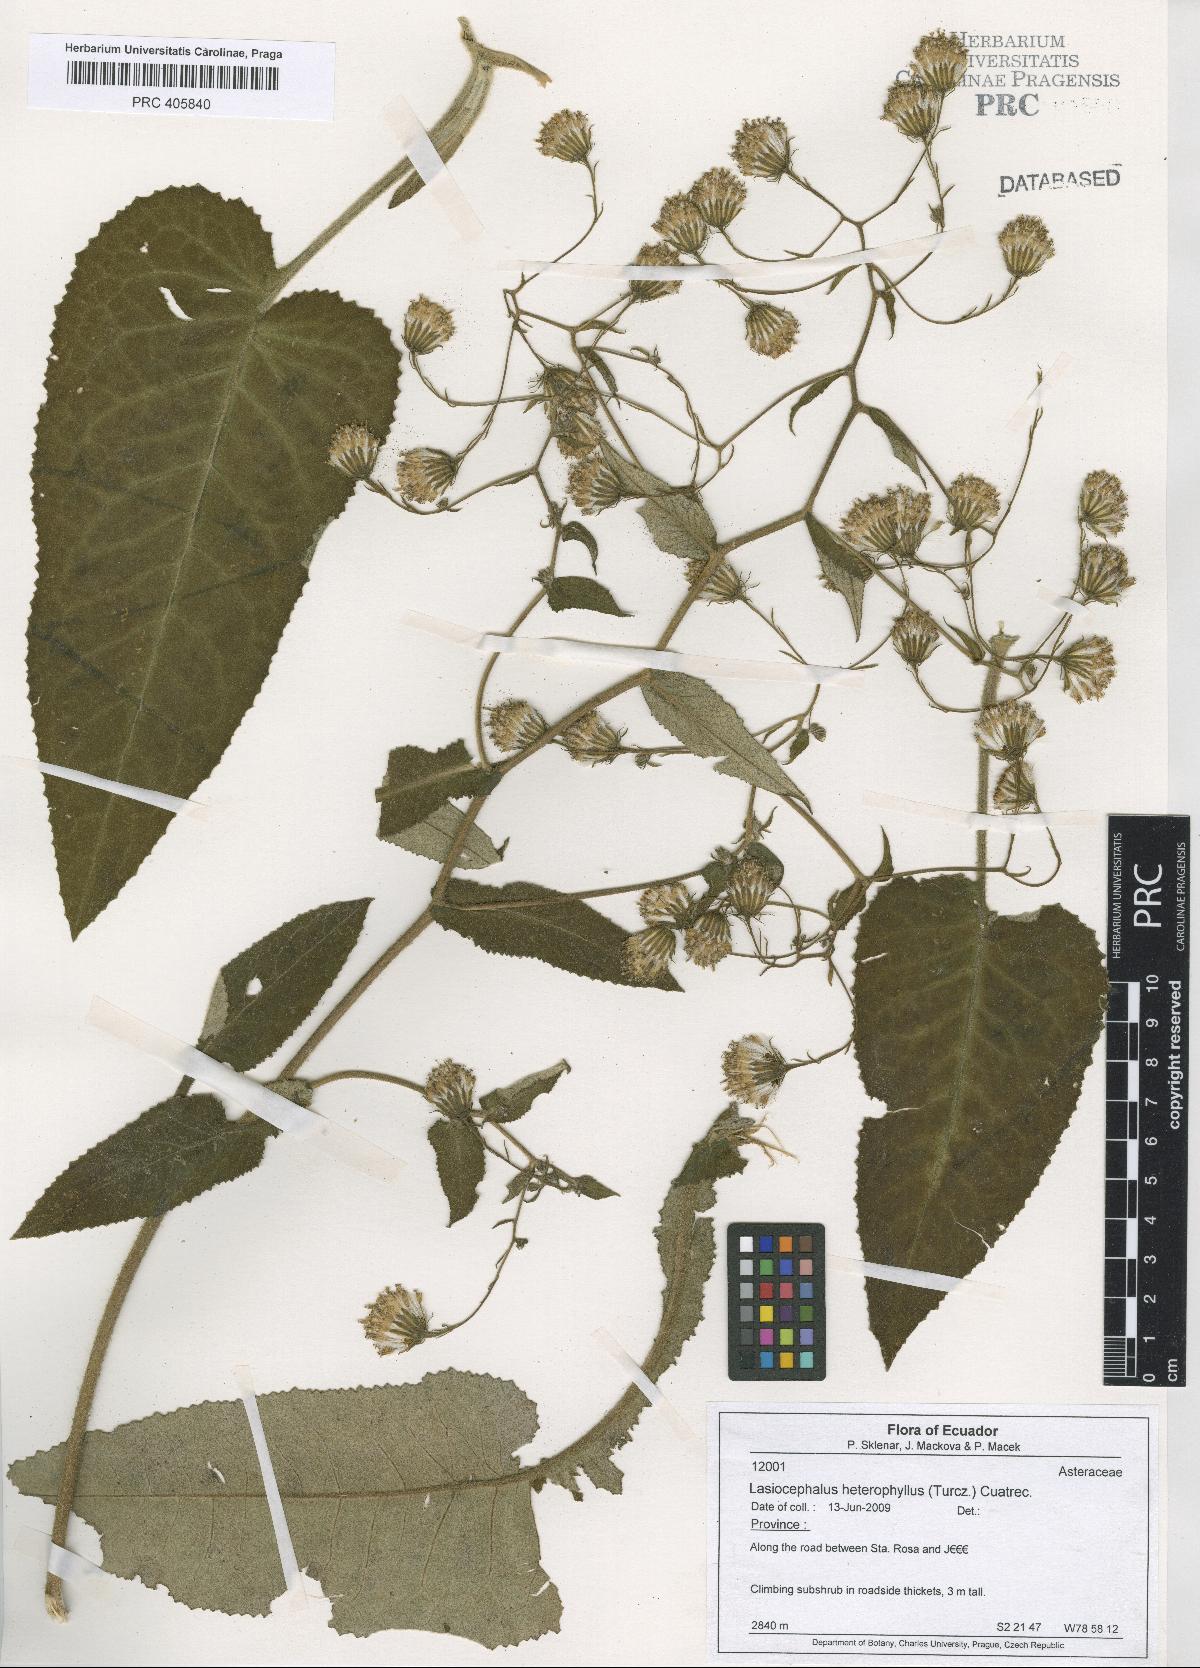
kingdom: Plantae
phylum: Tracheophyta
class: Magnoliopsida
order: Asterales
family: Asteraceae
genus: Aetheolaena
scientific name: Aetheolaena heterophylla
